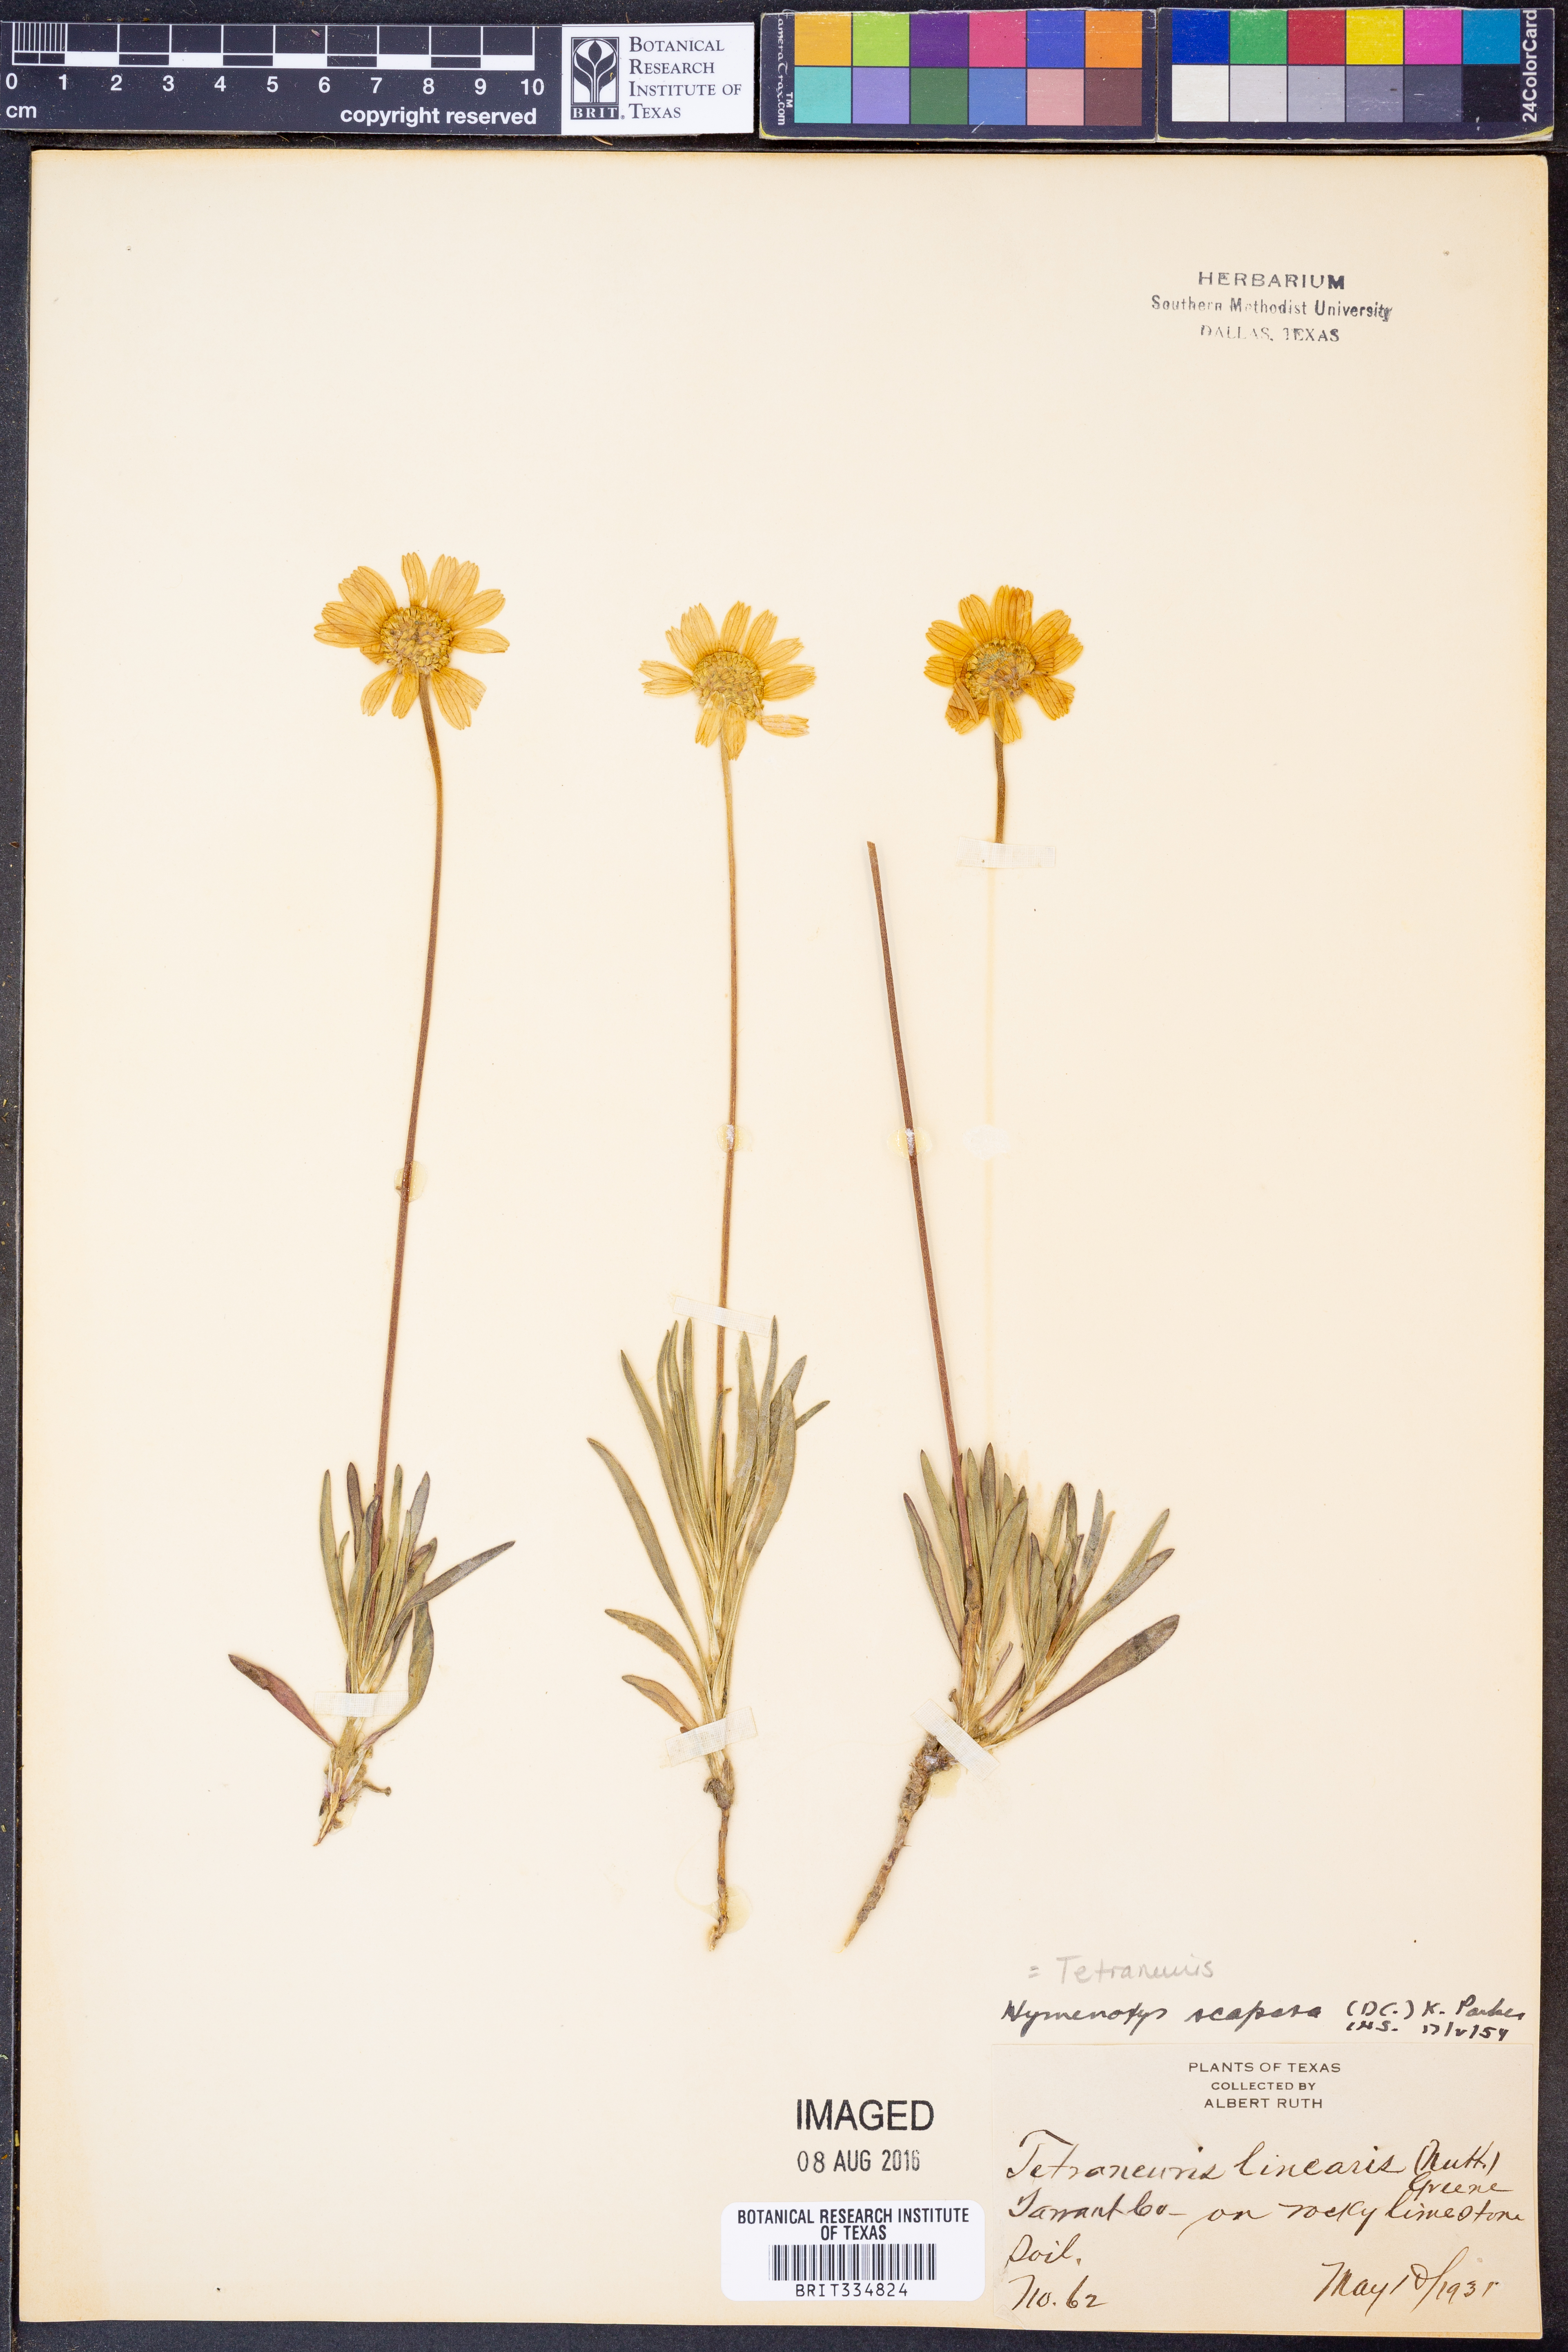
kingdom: Plantae
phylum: Tracheophyta
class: Magnoliopsida
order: Asterales
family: Asteraceae
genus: Tetraneuris
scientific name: Tetraneuris scaposa
